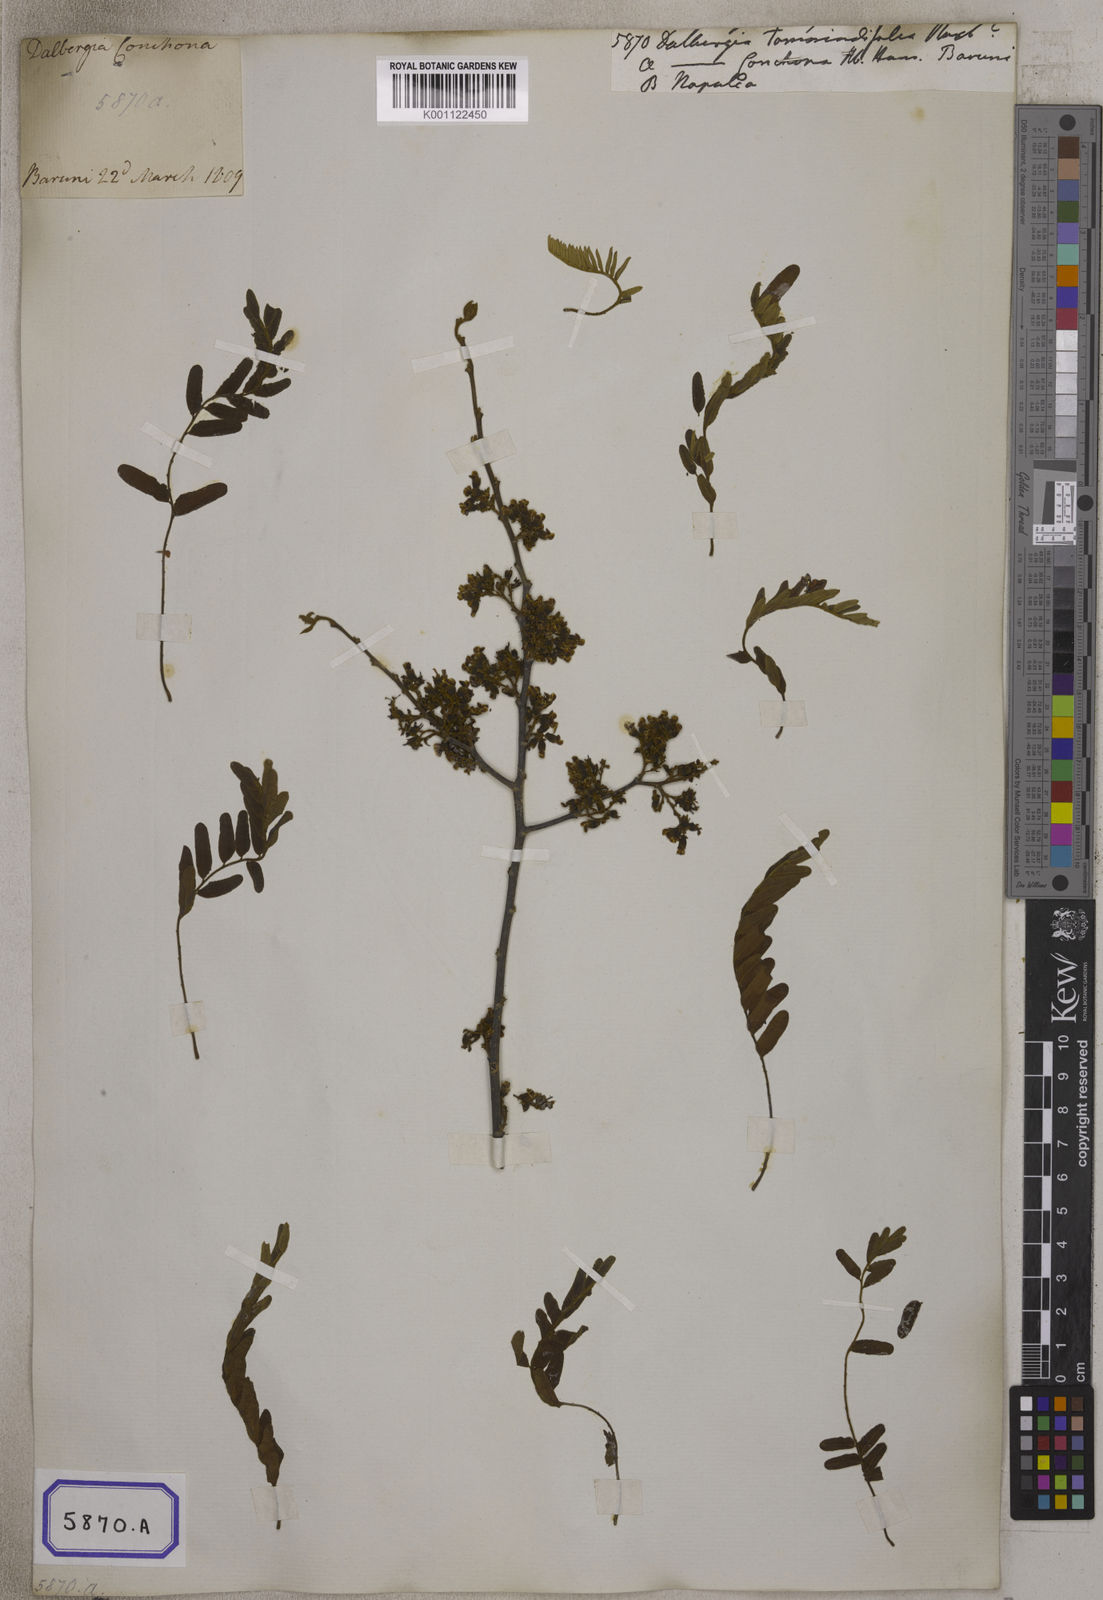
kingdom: Plantae
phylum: Tracheophyta
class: Magnoliopsida
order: Fabales
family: Fabaceae
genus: Dalbergia
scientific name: Dalbergia pinnata
